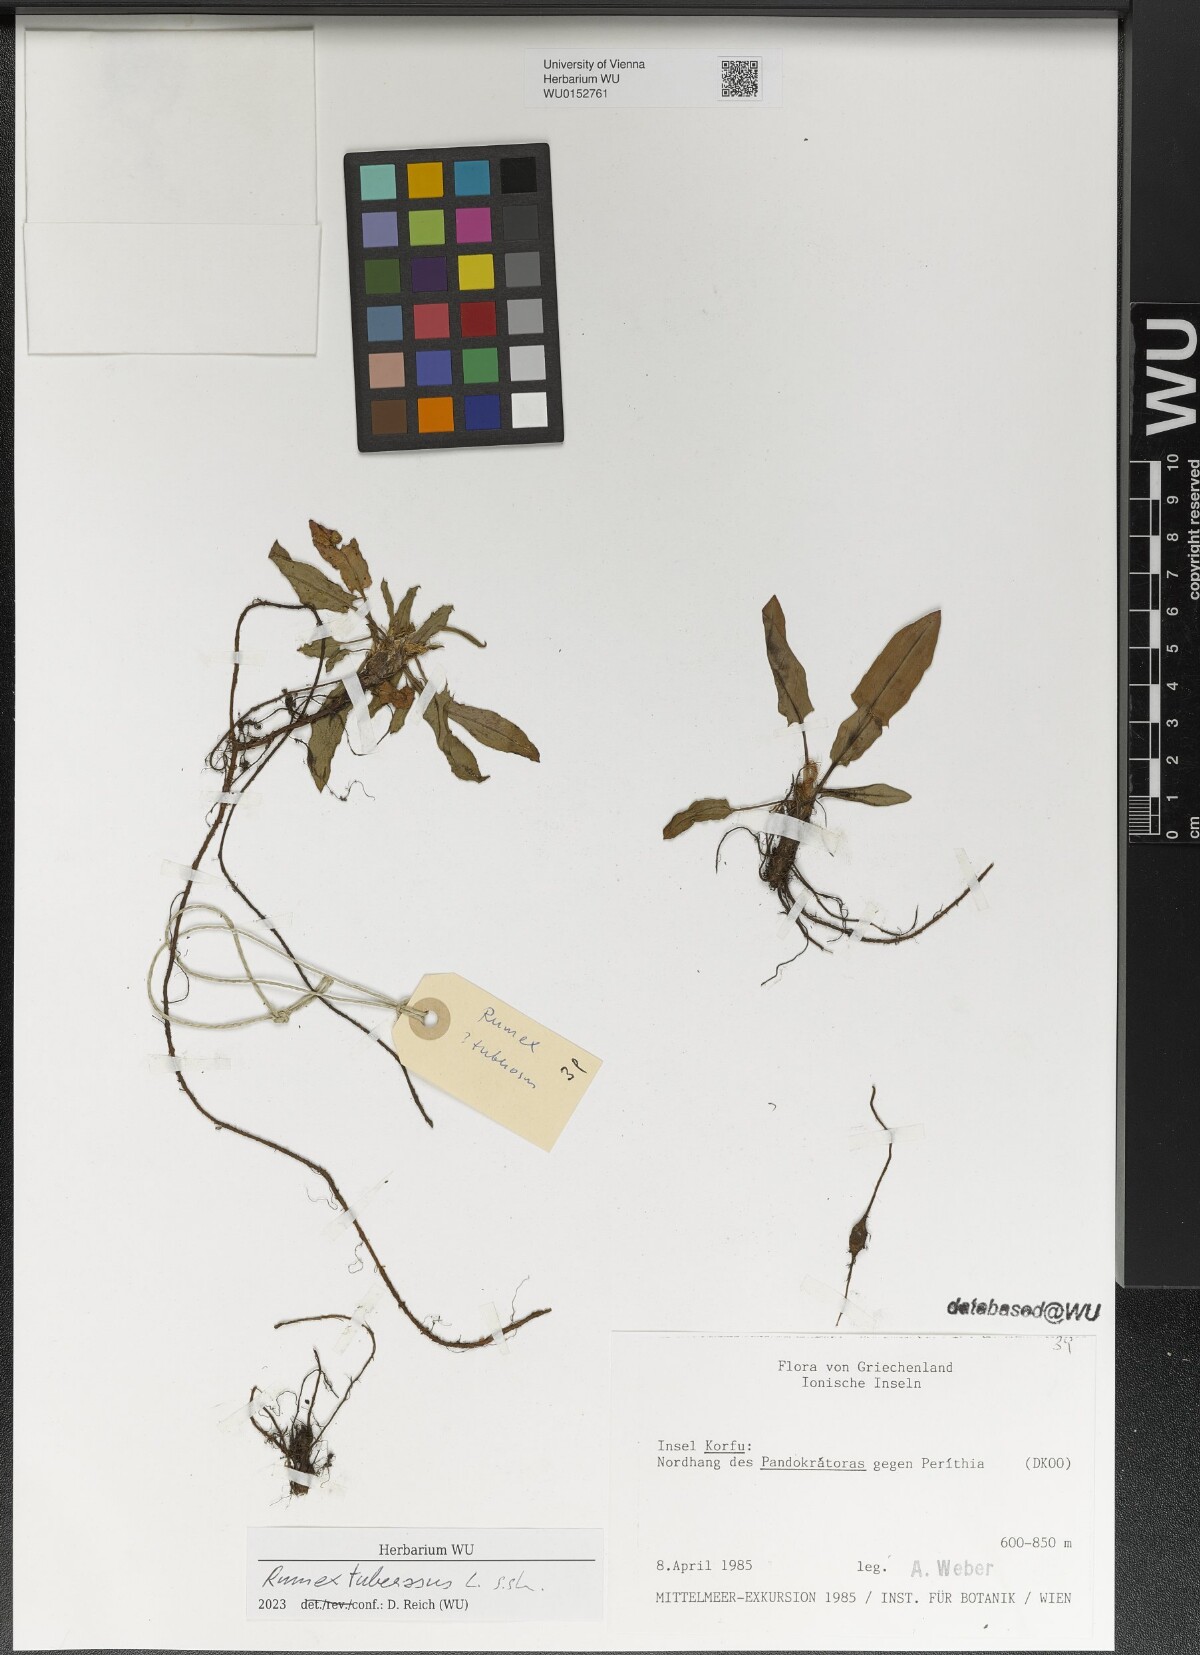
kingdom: Plantae
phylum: Tracheophyta
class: Magnoliopsida
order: Caryophyllales
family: Polygonaceae
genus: Rumex
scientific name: Rumex tuberosus
